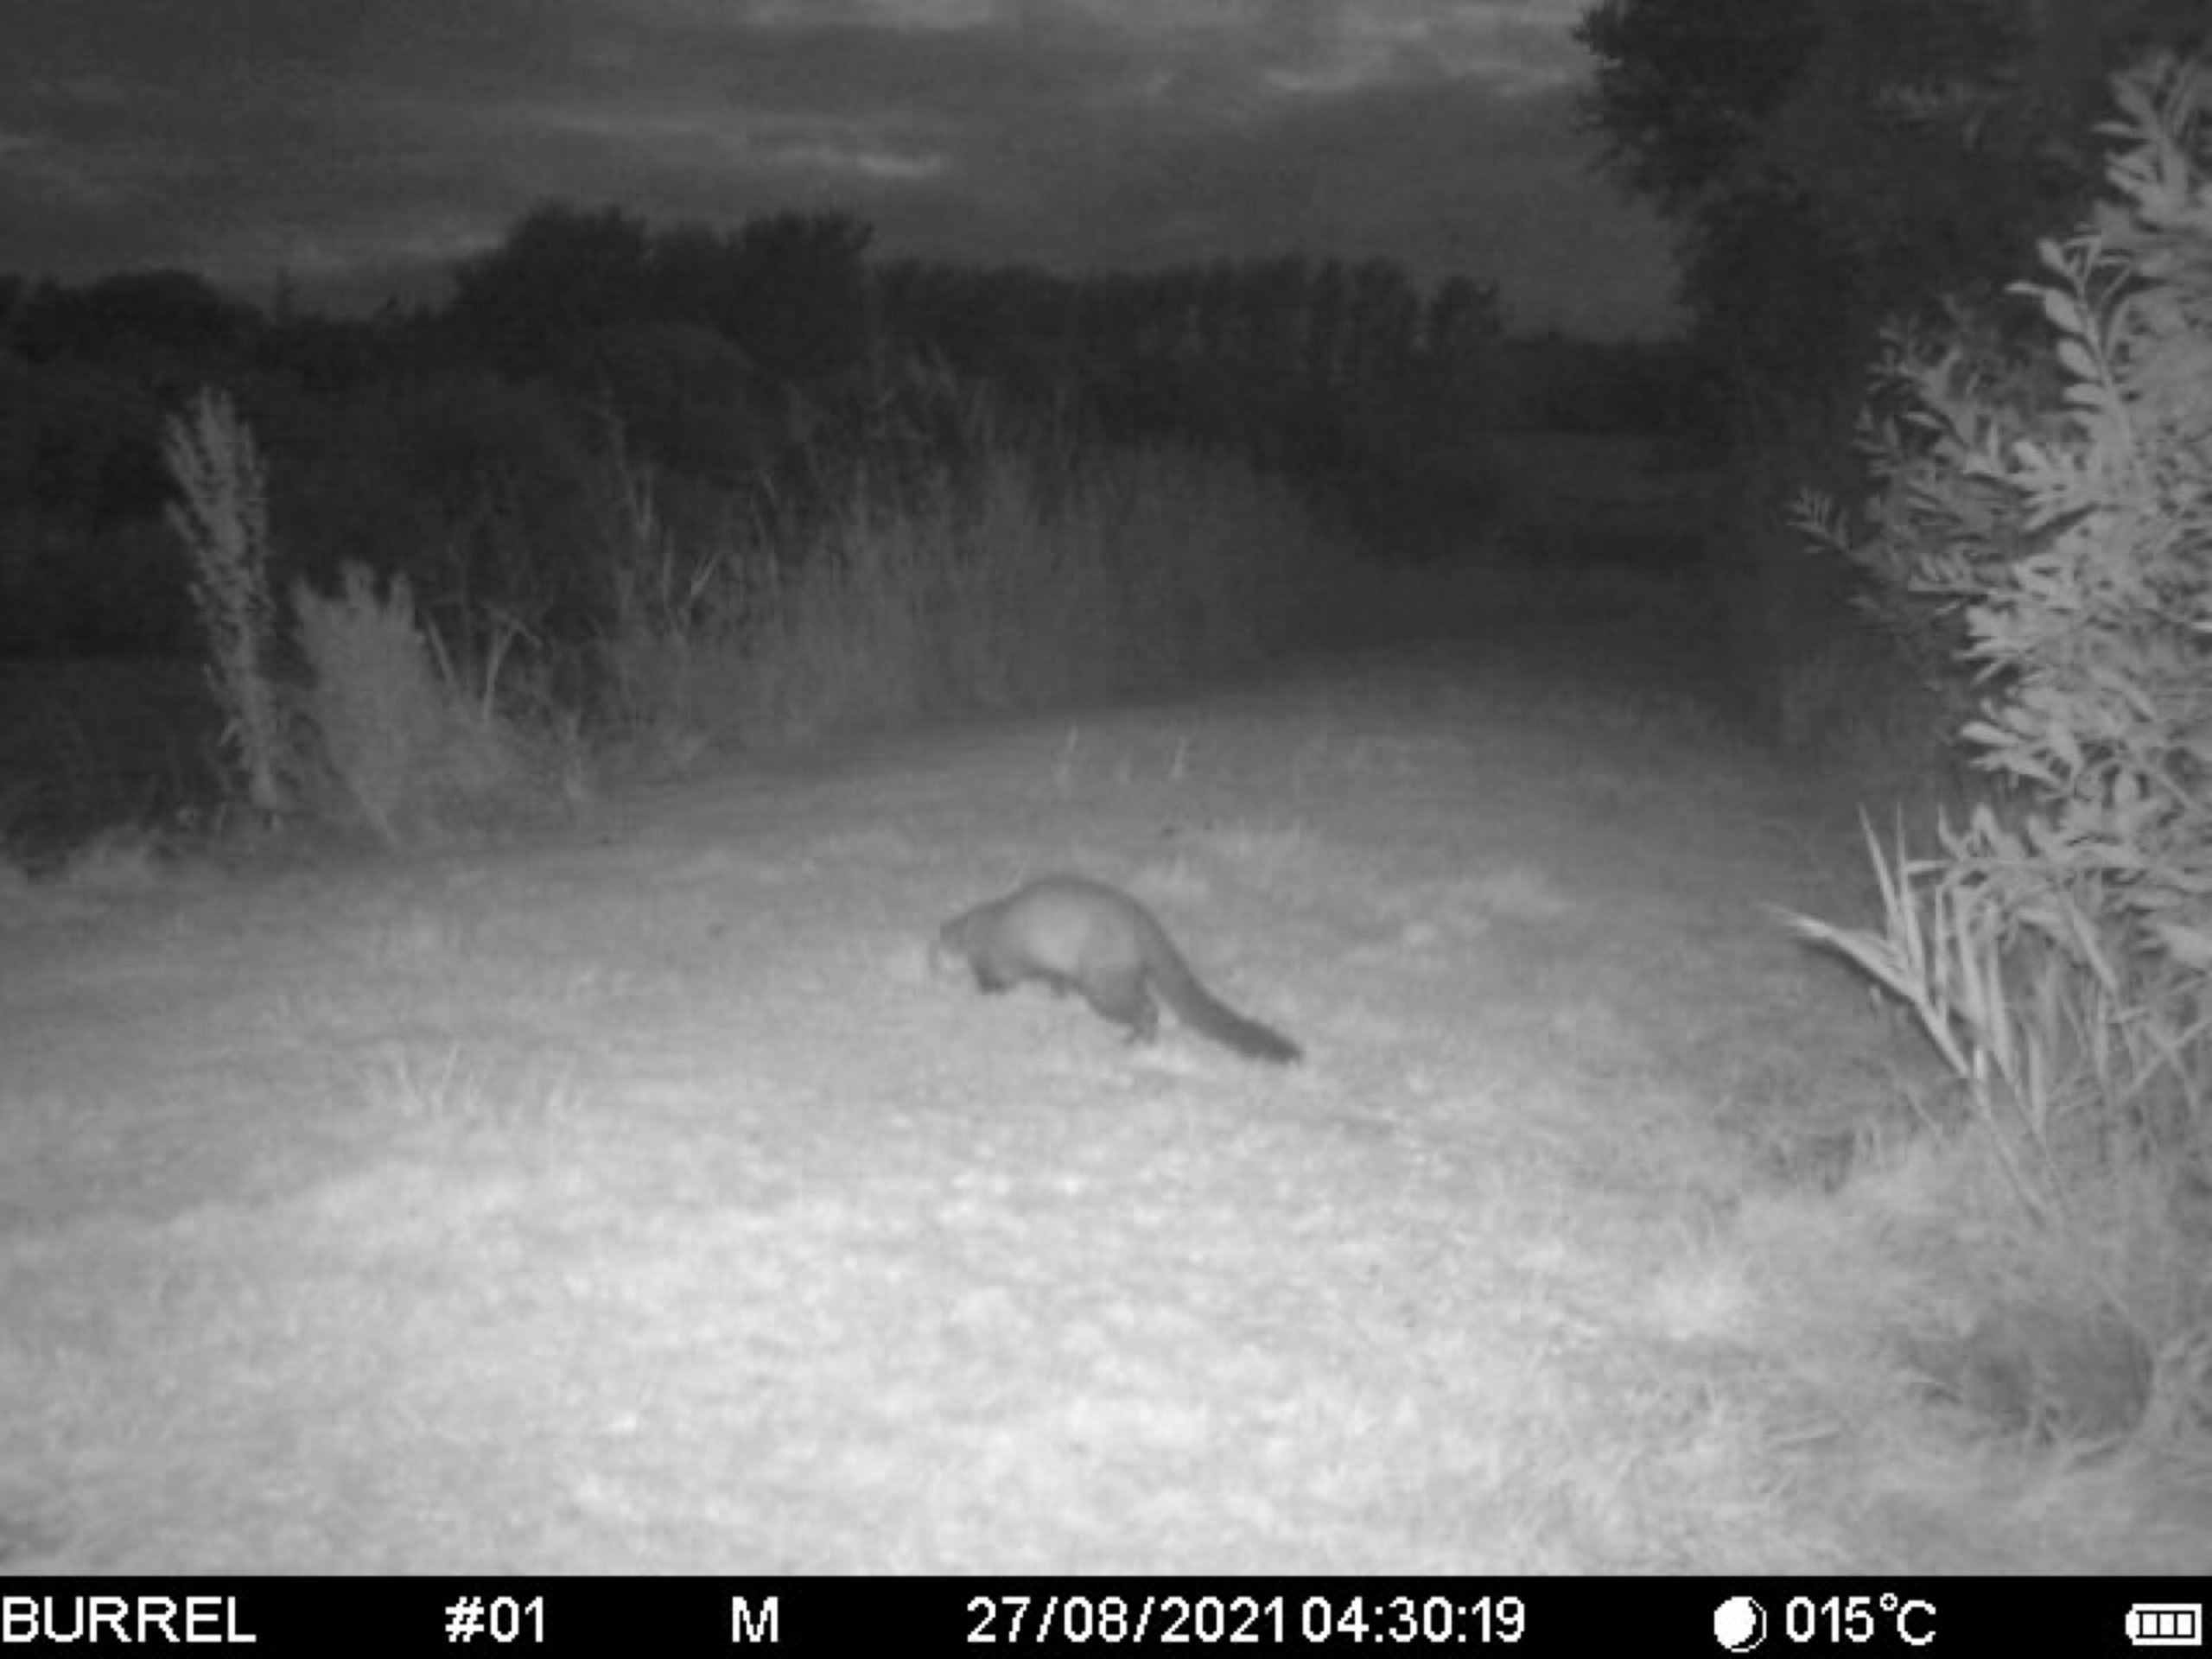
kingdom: Animalia
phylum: Chordata
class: Mammalia
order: Carnivora
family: Mustelidae
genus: Lutra
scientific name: Lutra lutra
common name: Odder
